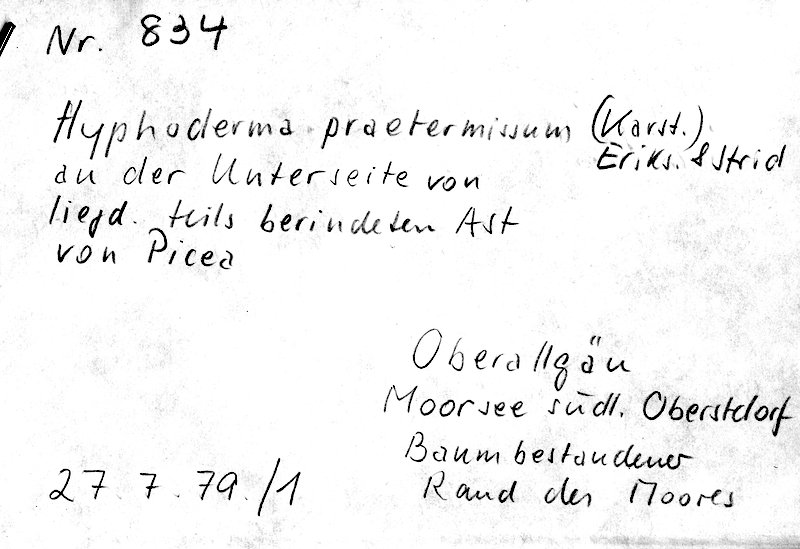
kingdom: Fungi
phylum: Basidiomycota
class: Agaricomycetes
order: Hymenochaetales
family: Rickenellaceae
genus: Peniophorella
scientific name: Peniophorella praetermissa
